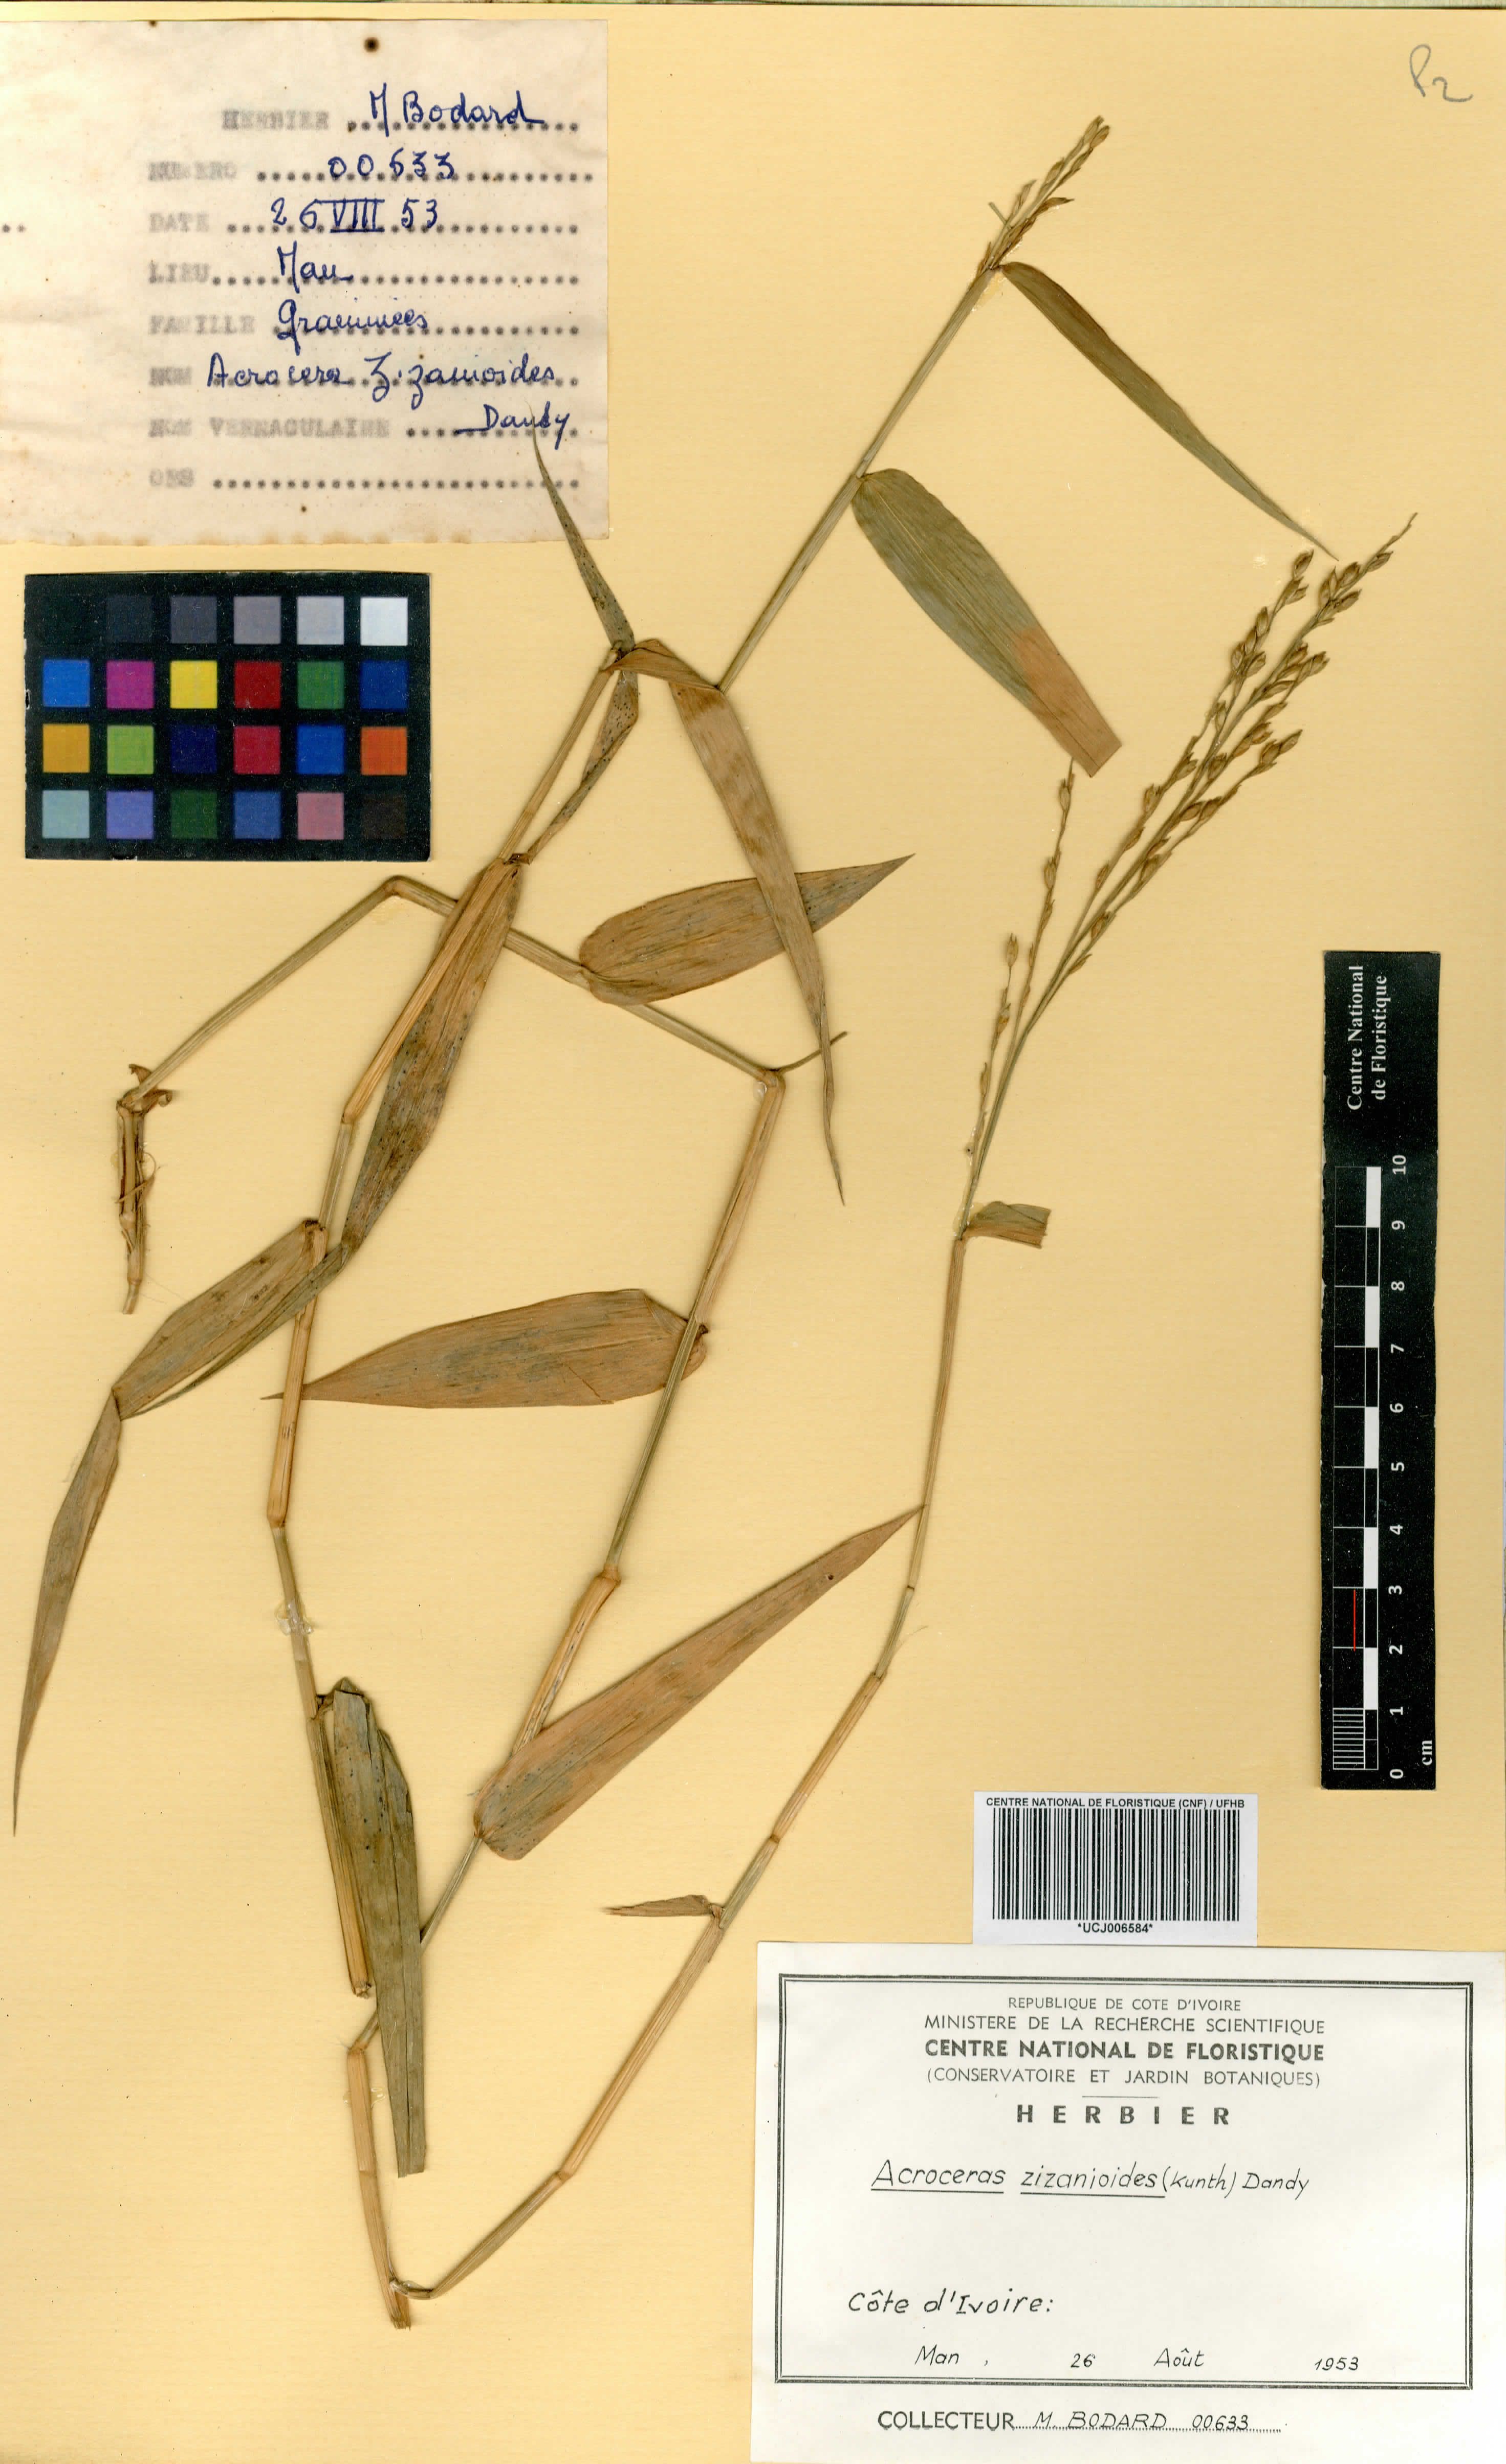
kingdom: Plantae
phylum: Tracheophyta
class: Liliopsida
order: Poales
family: Poaceae
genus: Acroceras
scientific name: Acroceras zizanioides
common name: Oat grass
